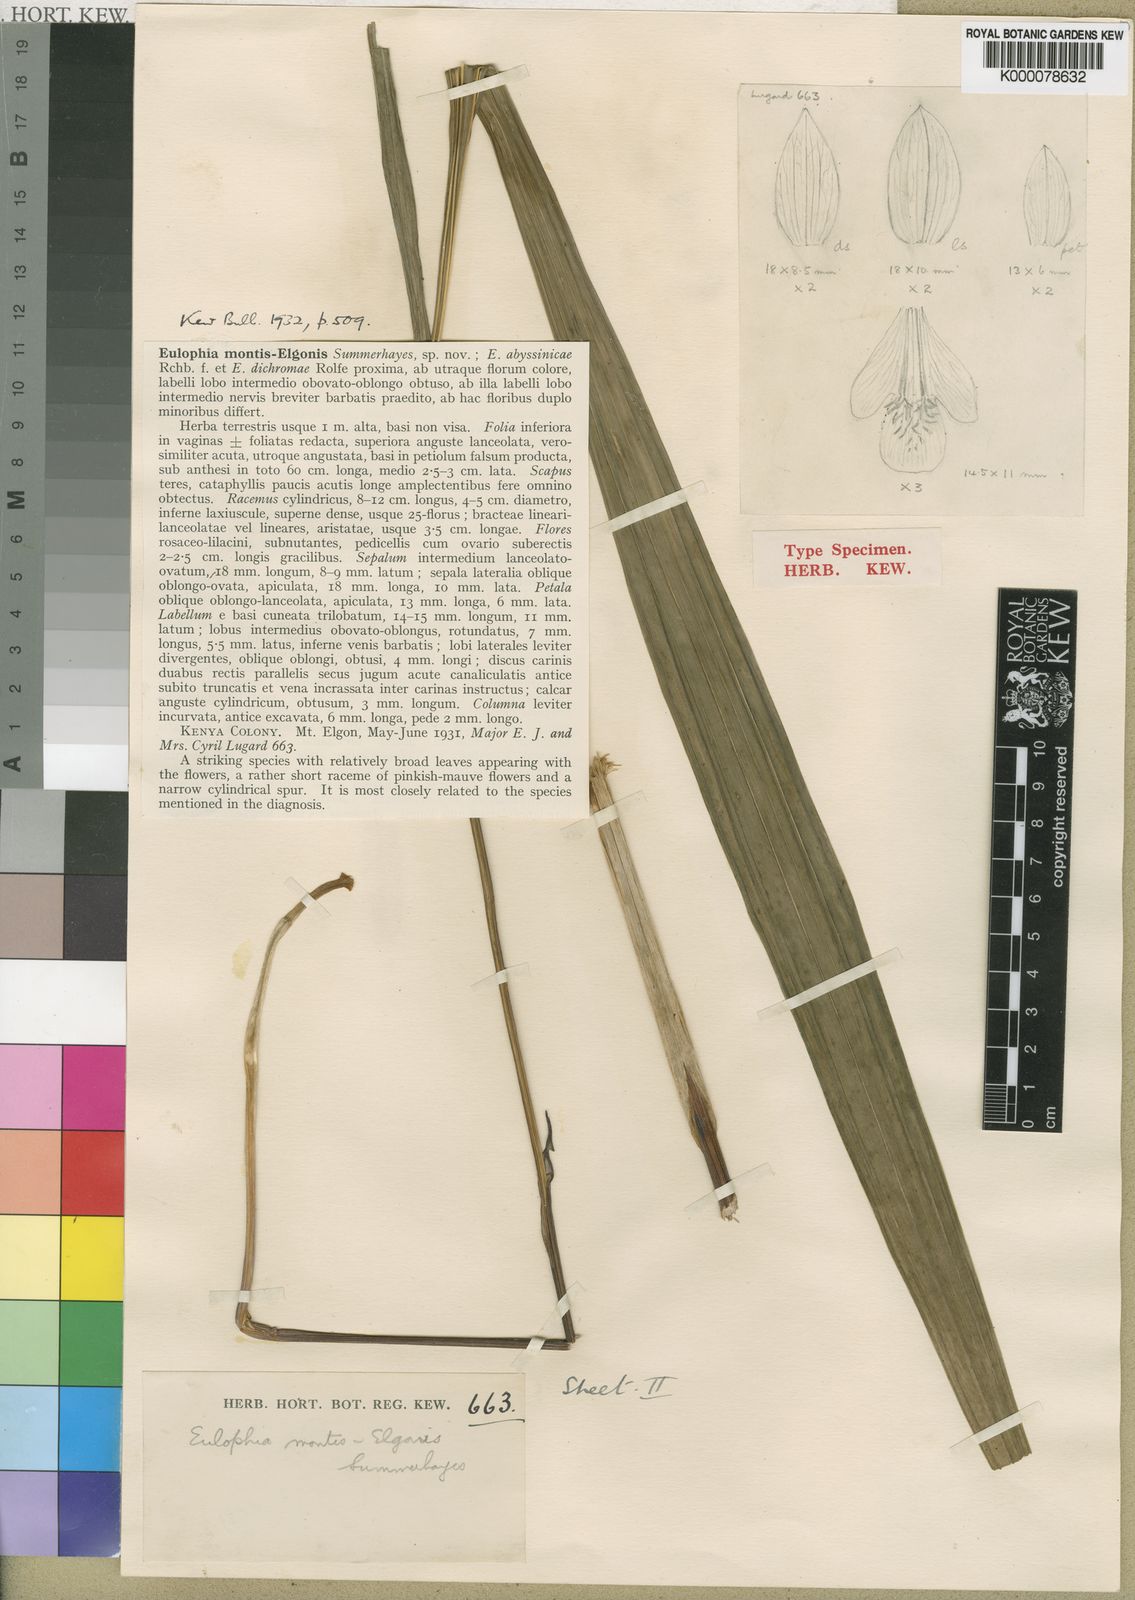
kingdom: Plantae
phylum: Tracheophyta
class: Liliopsida
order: Asparagales
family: Orchidaceae
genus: Eulophia
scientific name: Eulophia montis-elgonis
